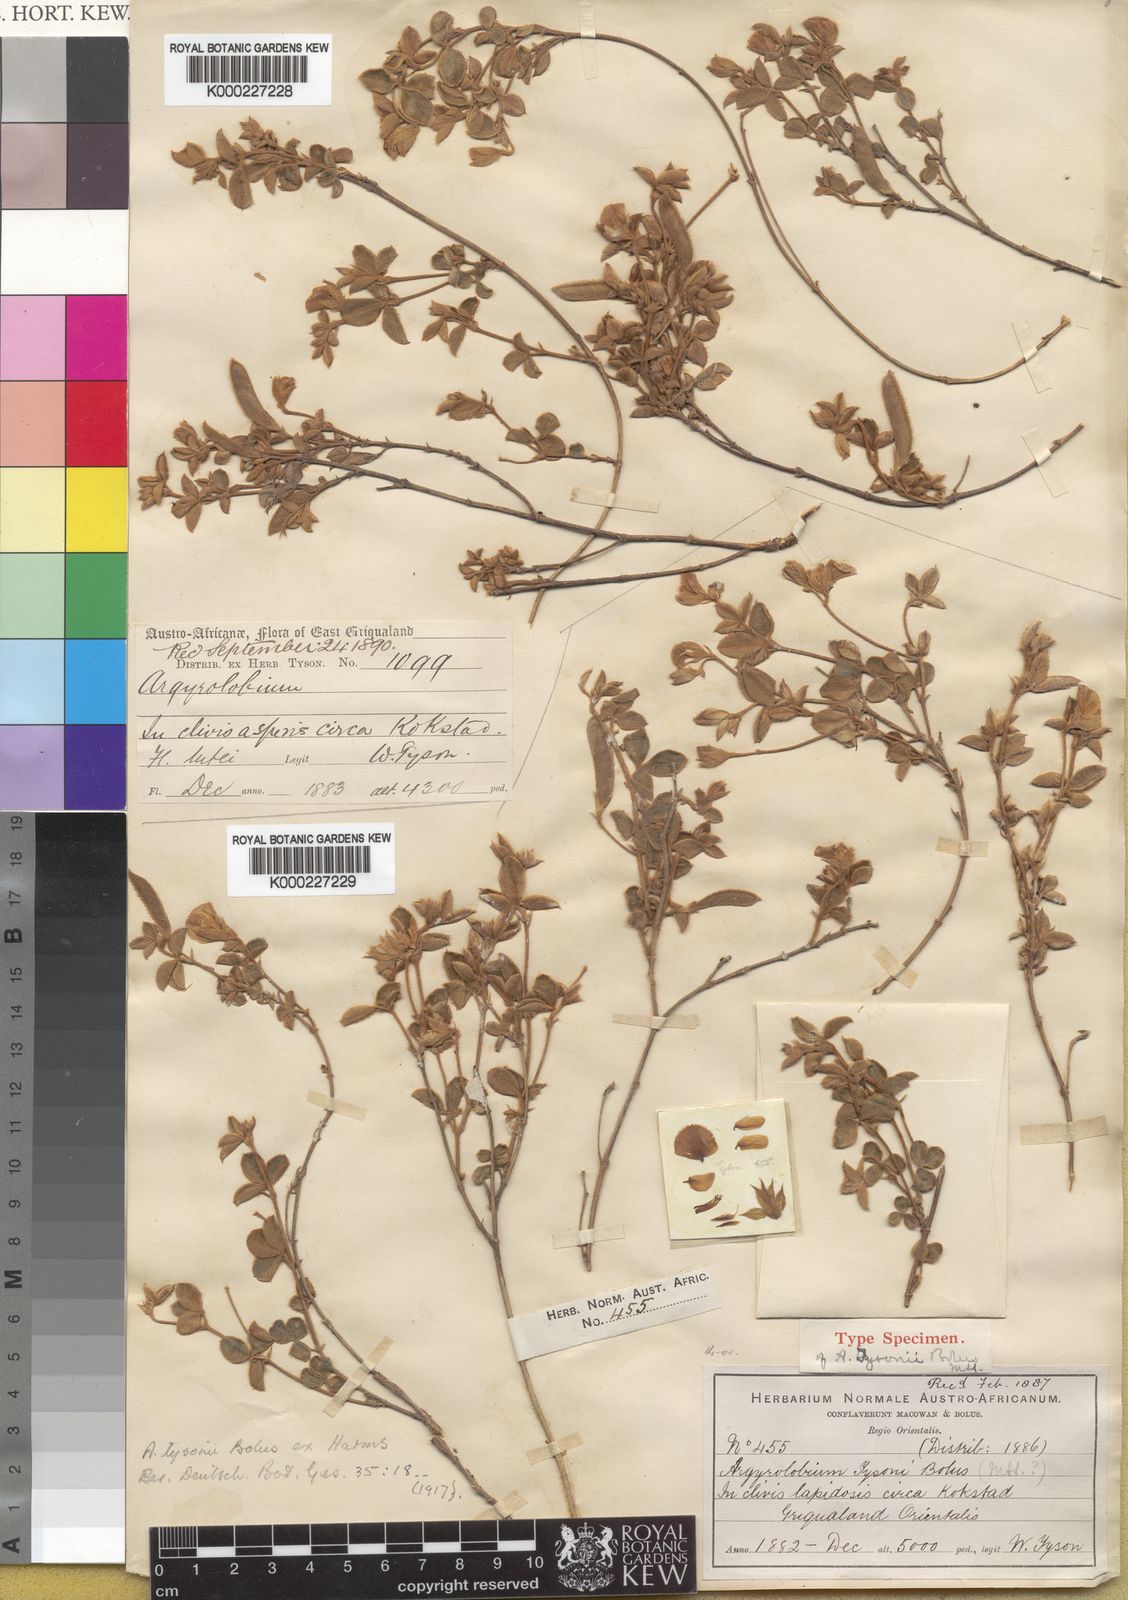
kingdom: Plantae
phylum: Tracheophyta
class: Magnoliopsida
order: Fabales
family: Fabaceae
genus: Argyrolobium
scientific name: Argyrolobium rupestre
